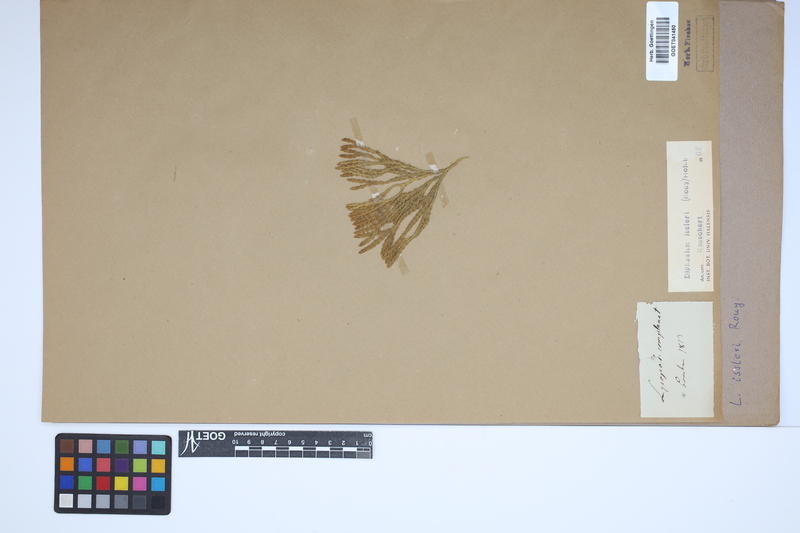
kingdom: Plantae
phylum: Tracheophyta
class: Lycopodiopsida
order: Lycopodiales
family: Lycopodiaceae
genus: Diphasiastrum
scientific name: Diphasiastrum issleri
